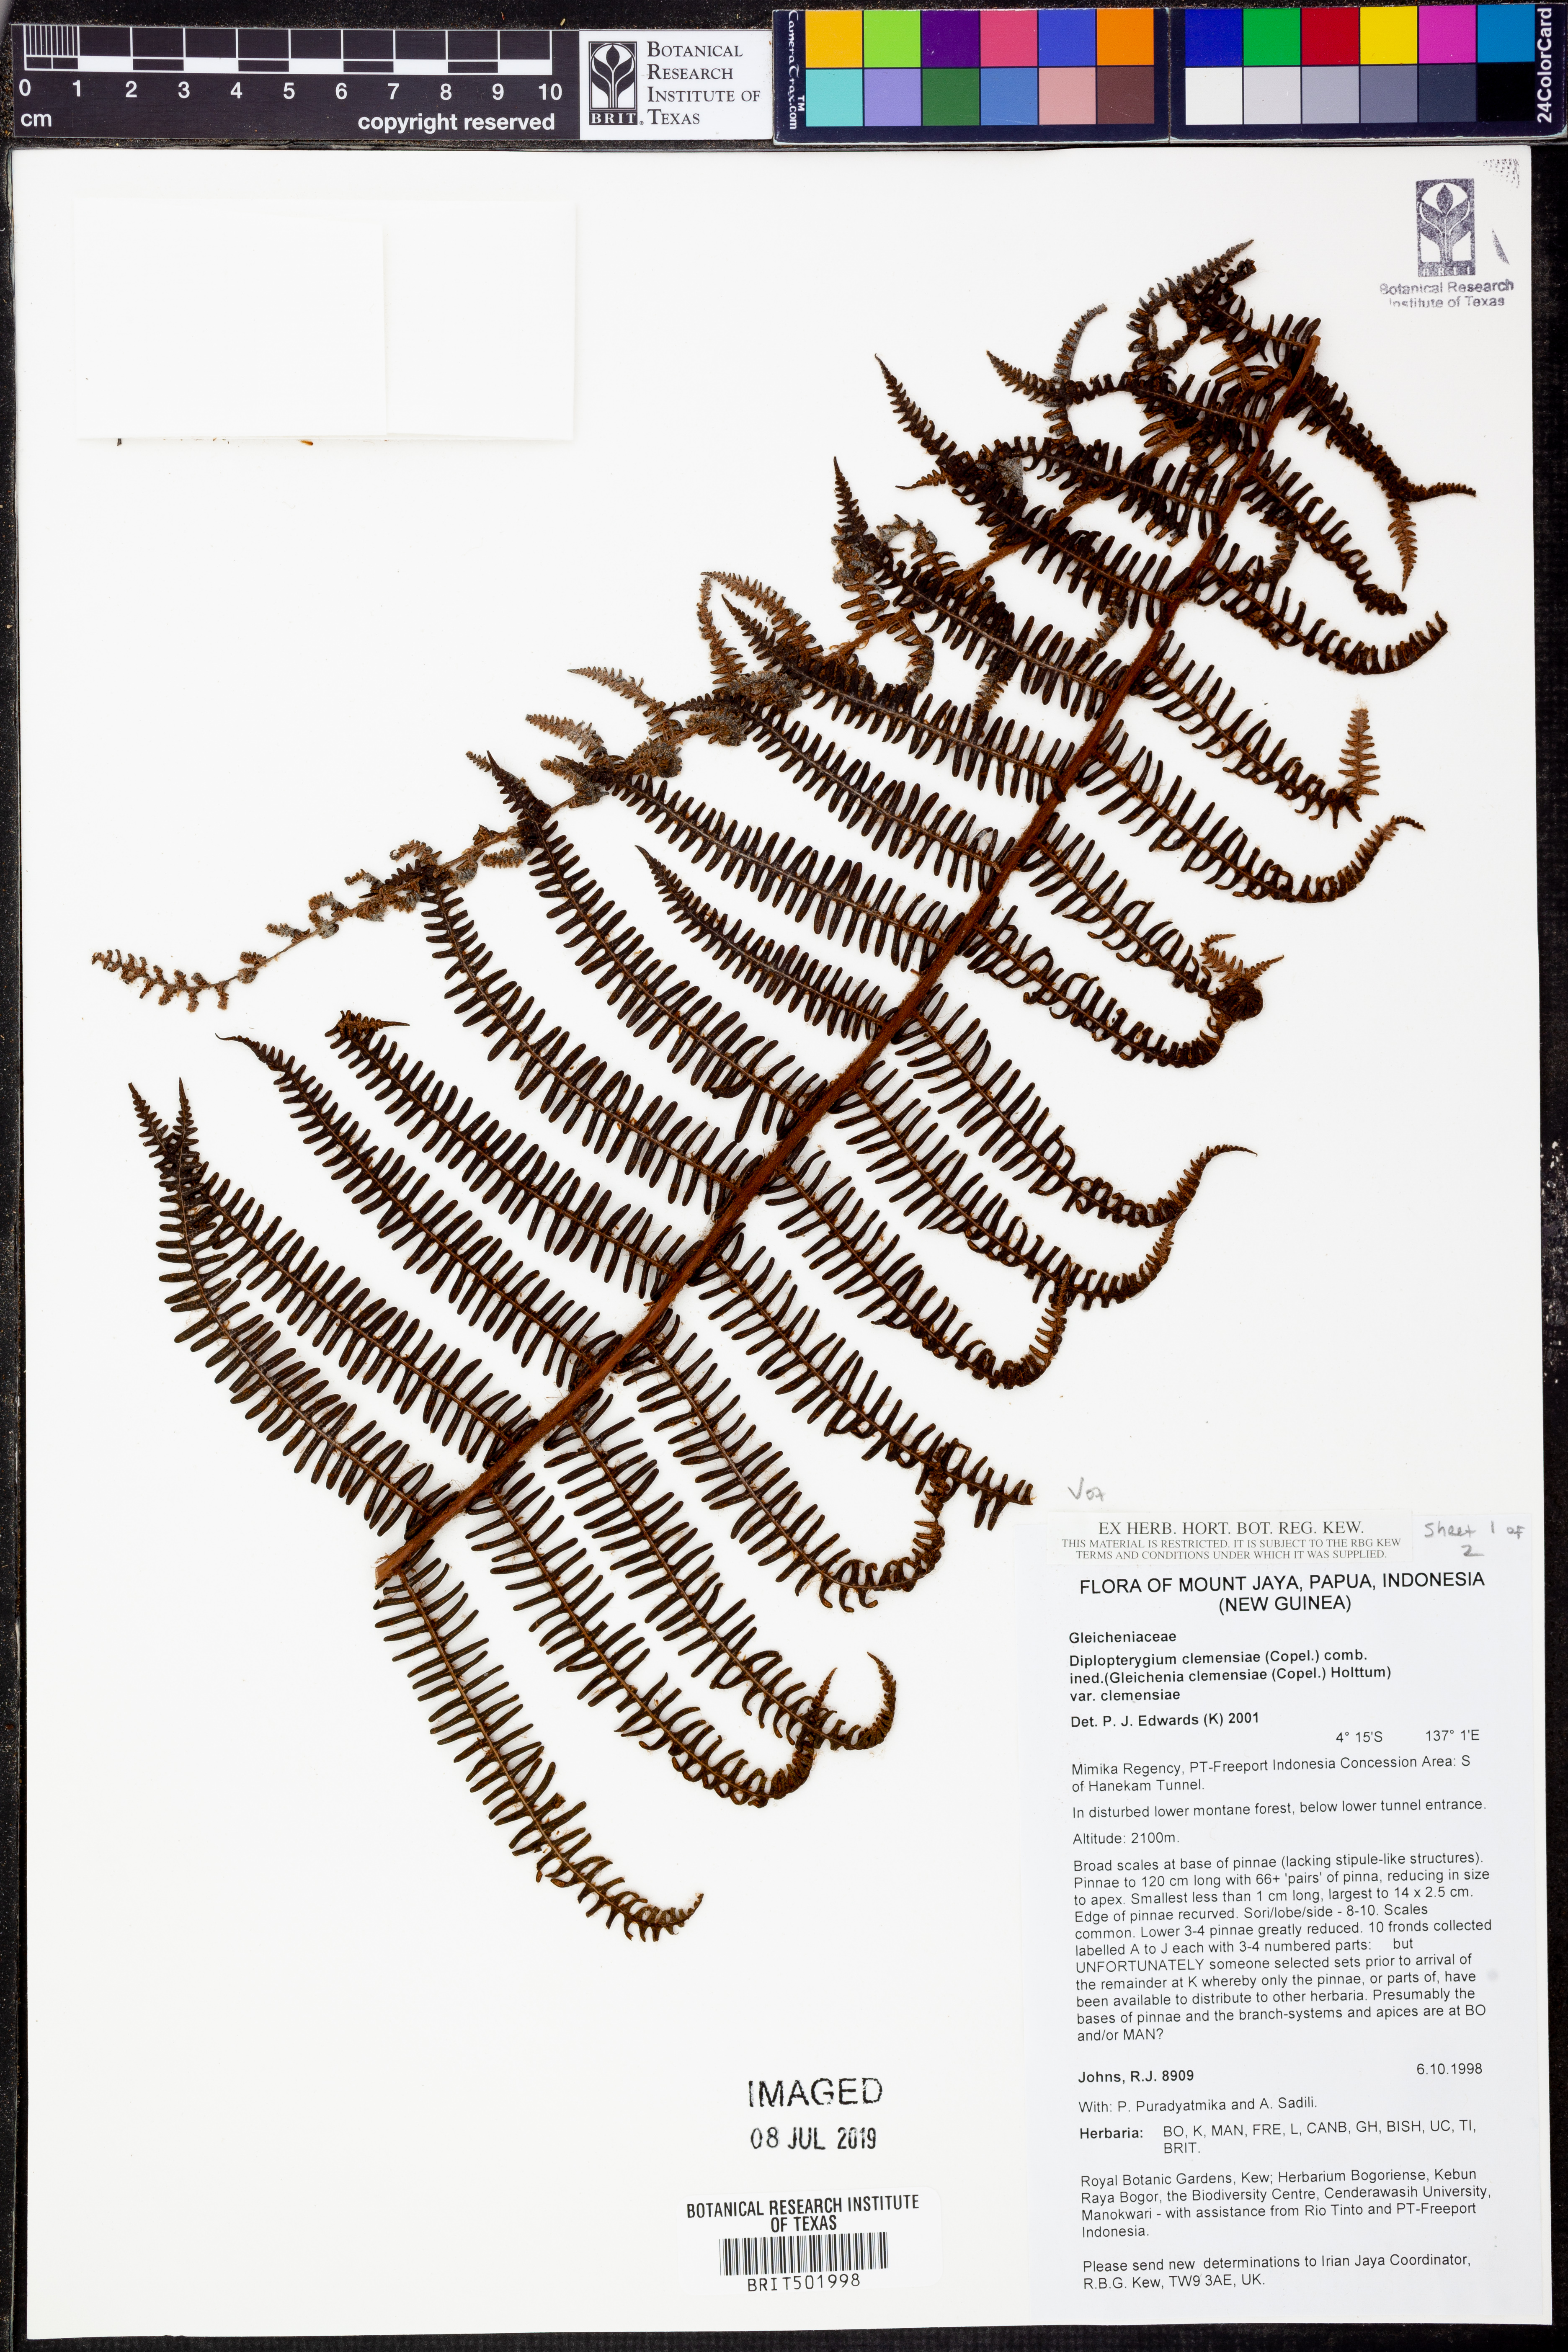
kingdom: Plantae
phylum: Tracheophyta
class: Polypodiopsida
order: Gleicheniales
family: Gleicheniaceae
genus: Diplopterygium
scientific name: Diplopterygium clemensiae
